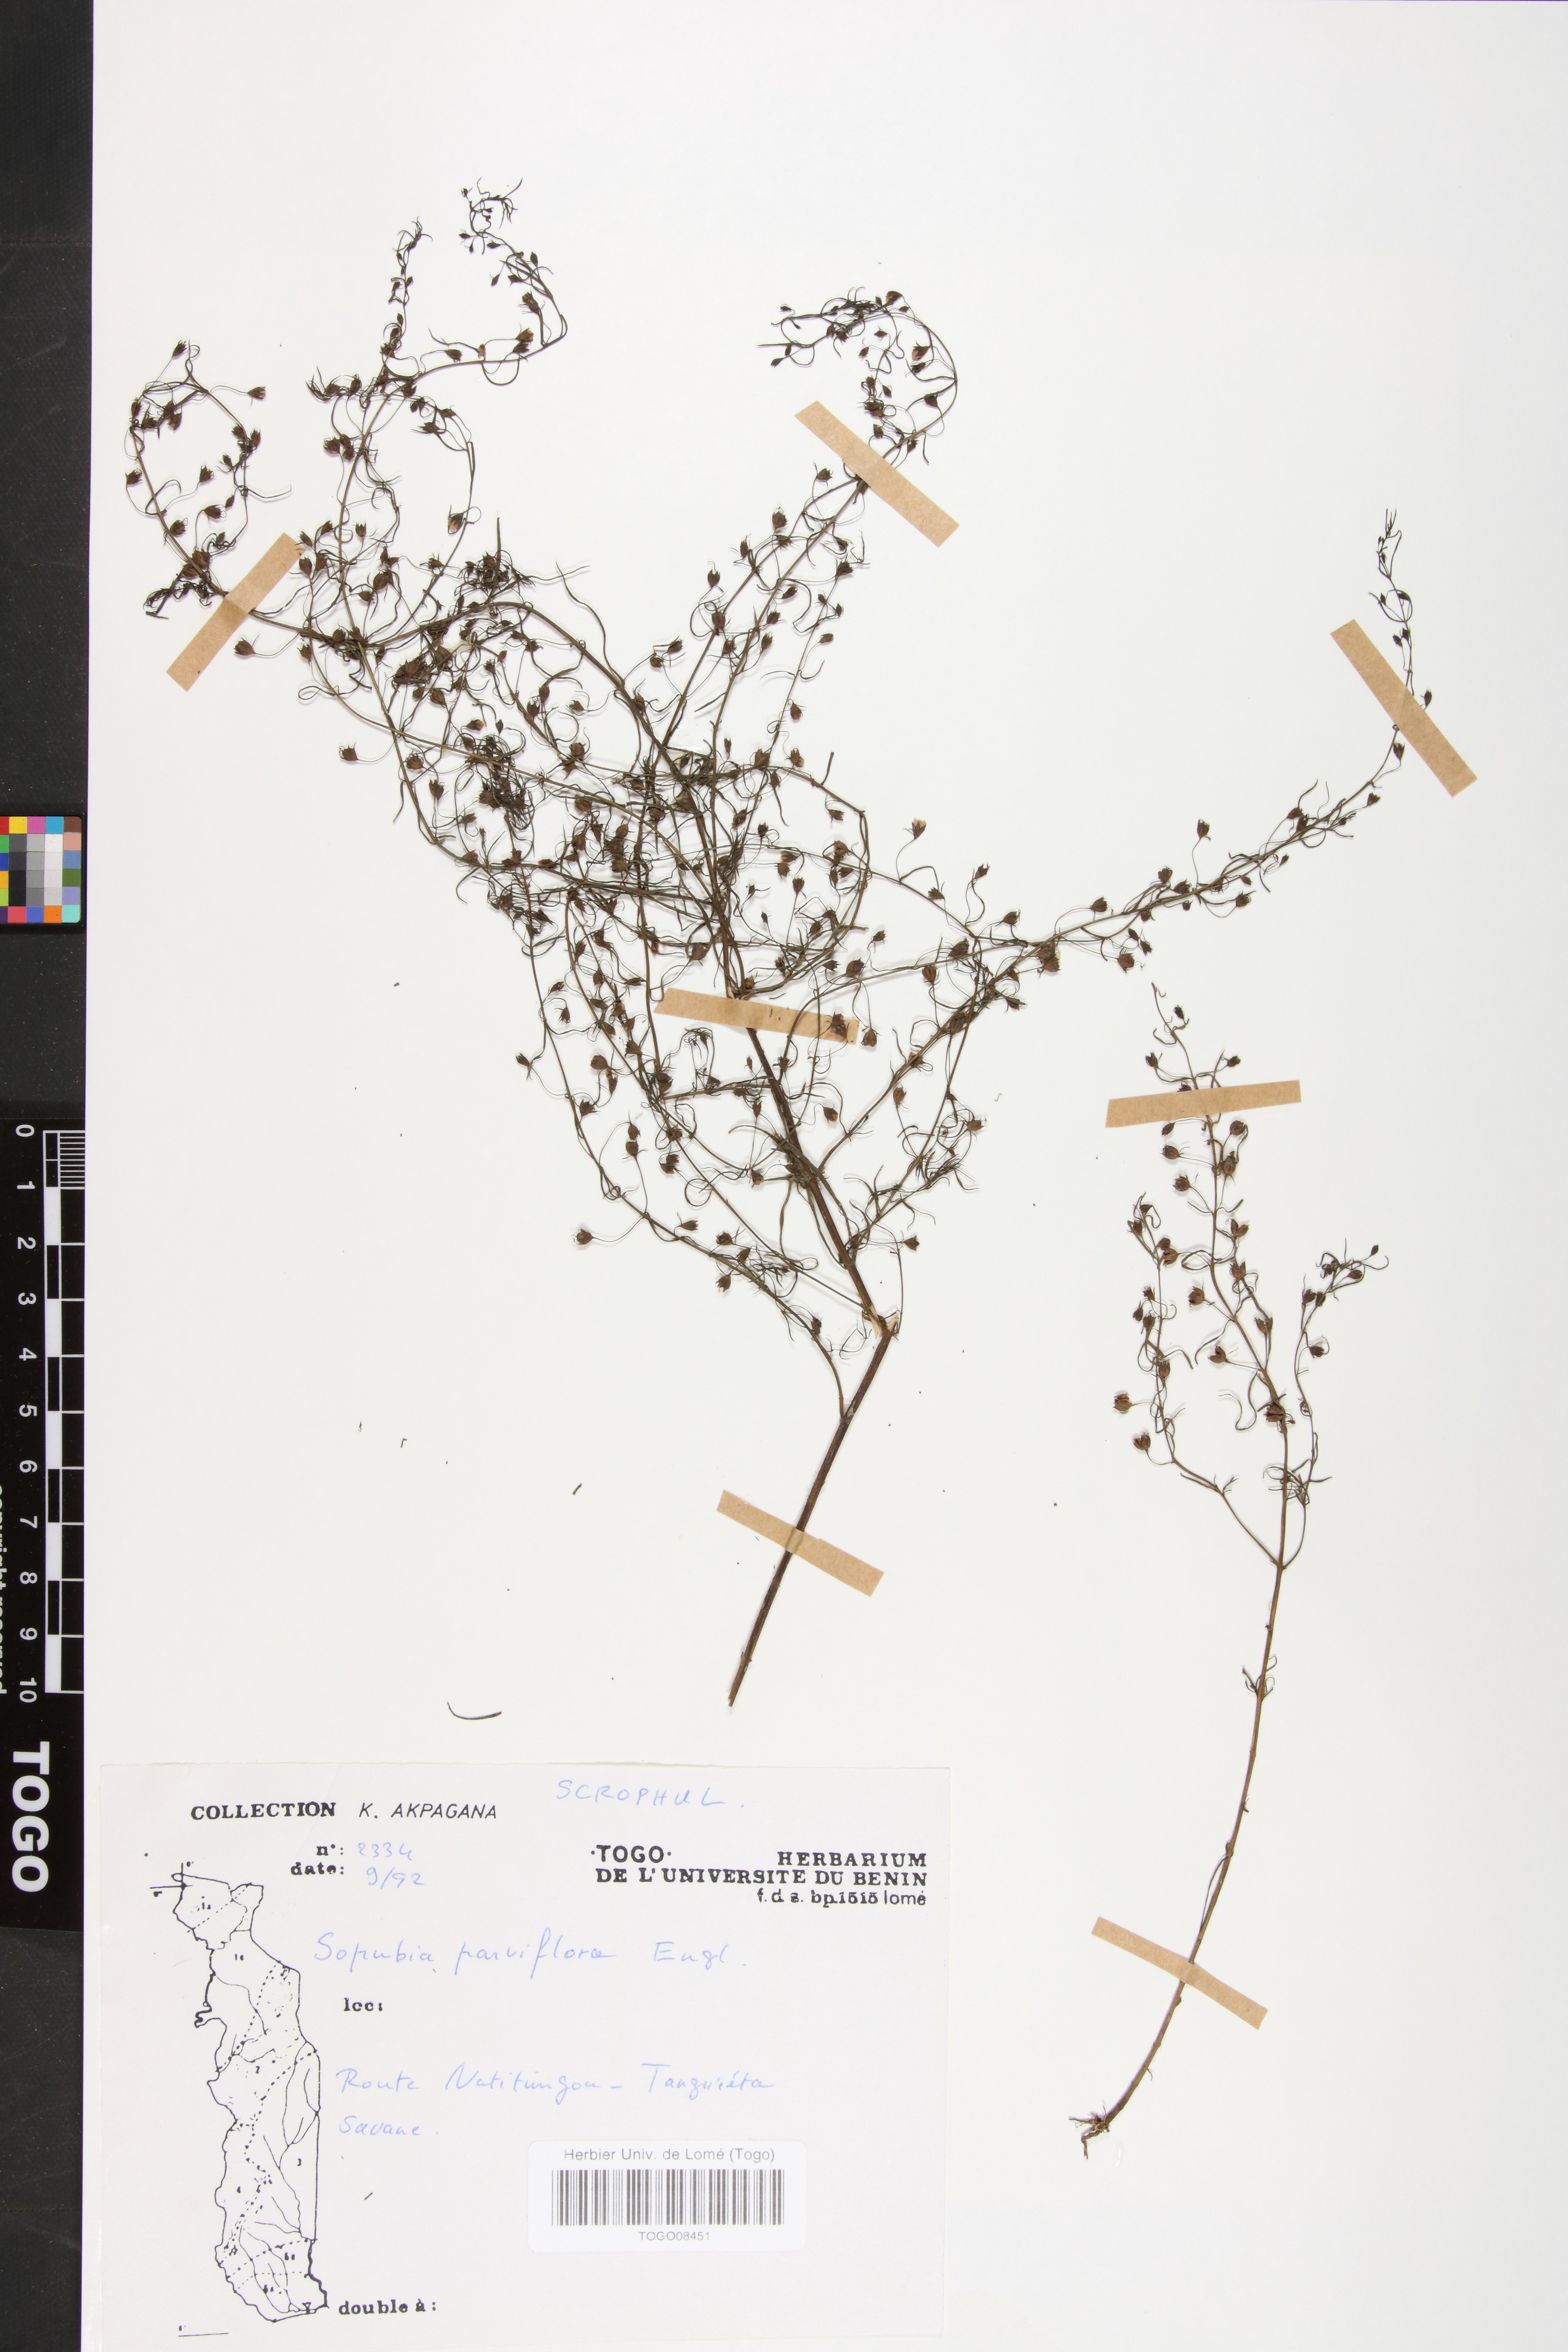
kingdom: Plantae
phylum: Tracheophyta
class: Magnoliopsida
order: Lamiales
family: Orobanchaceae
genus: Sopubia
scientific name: Sopubia parviflora
